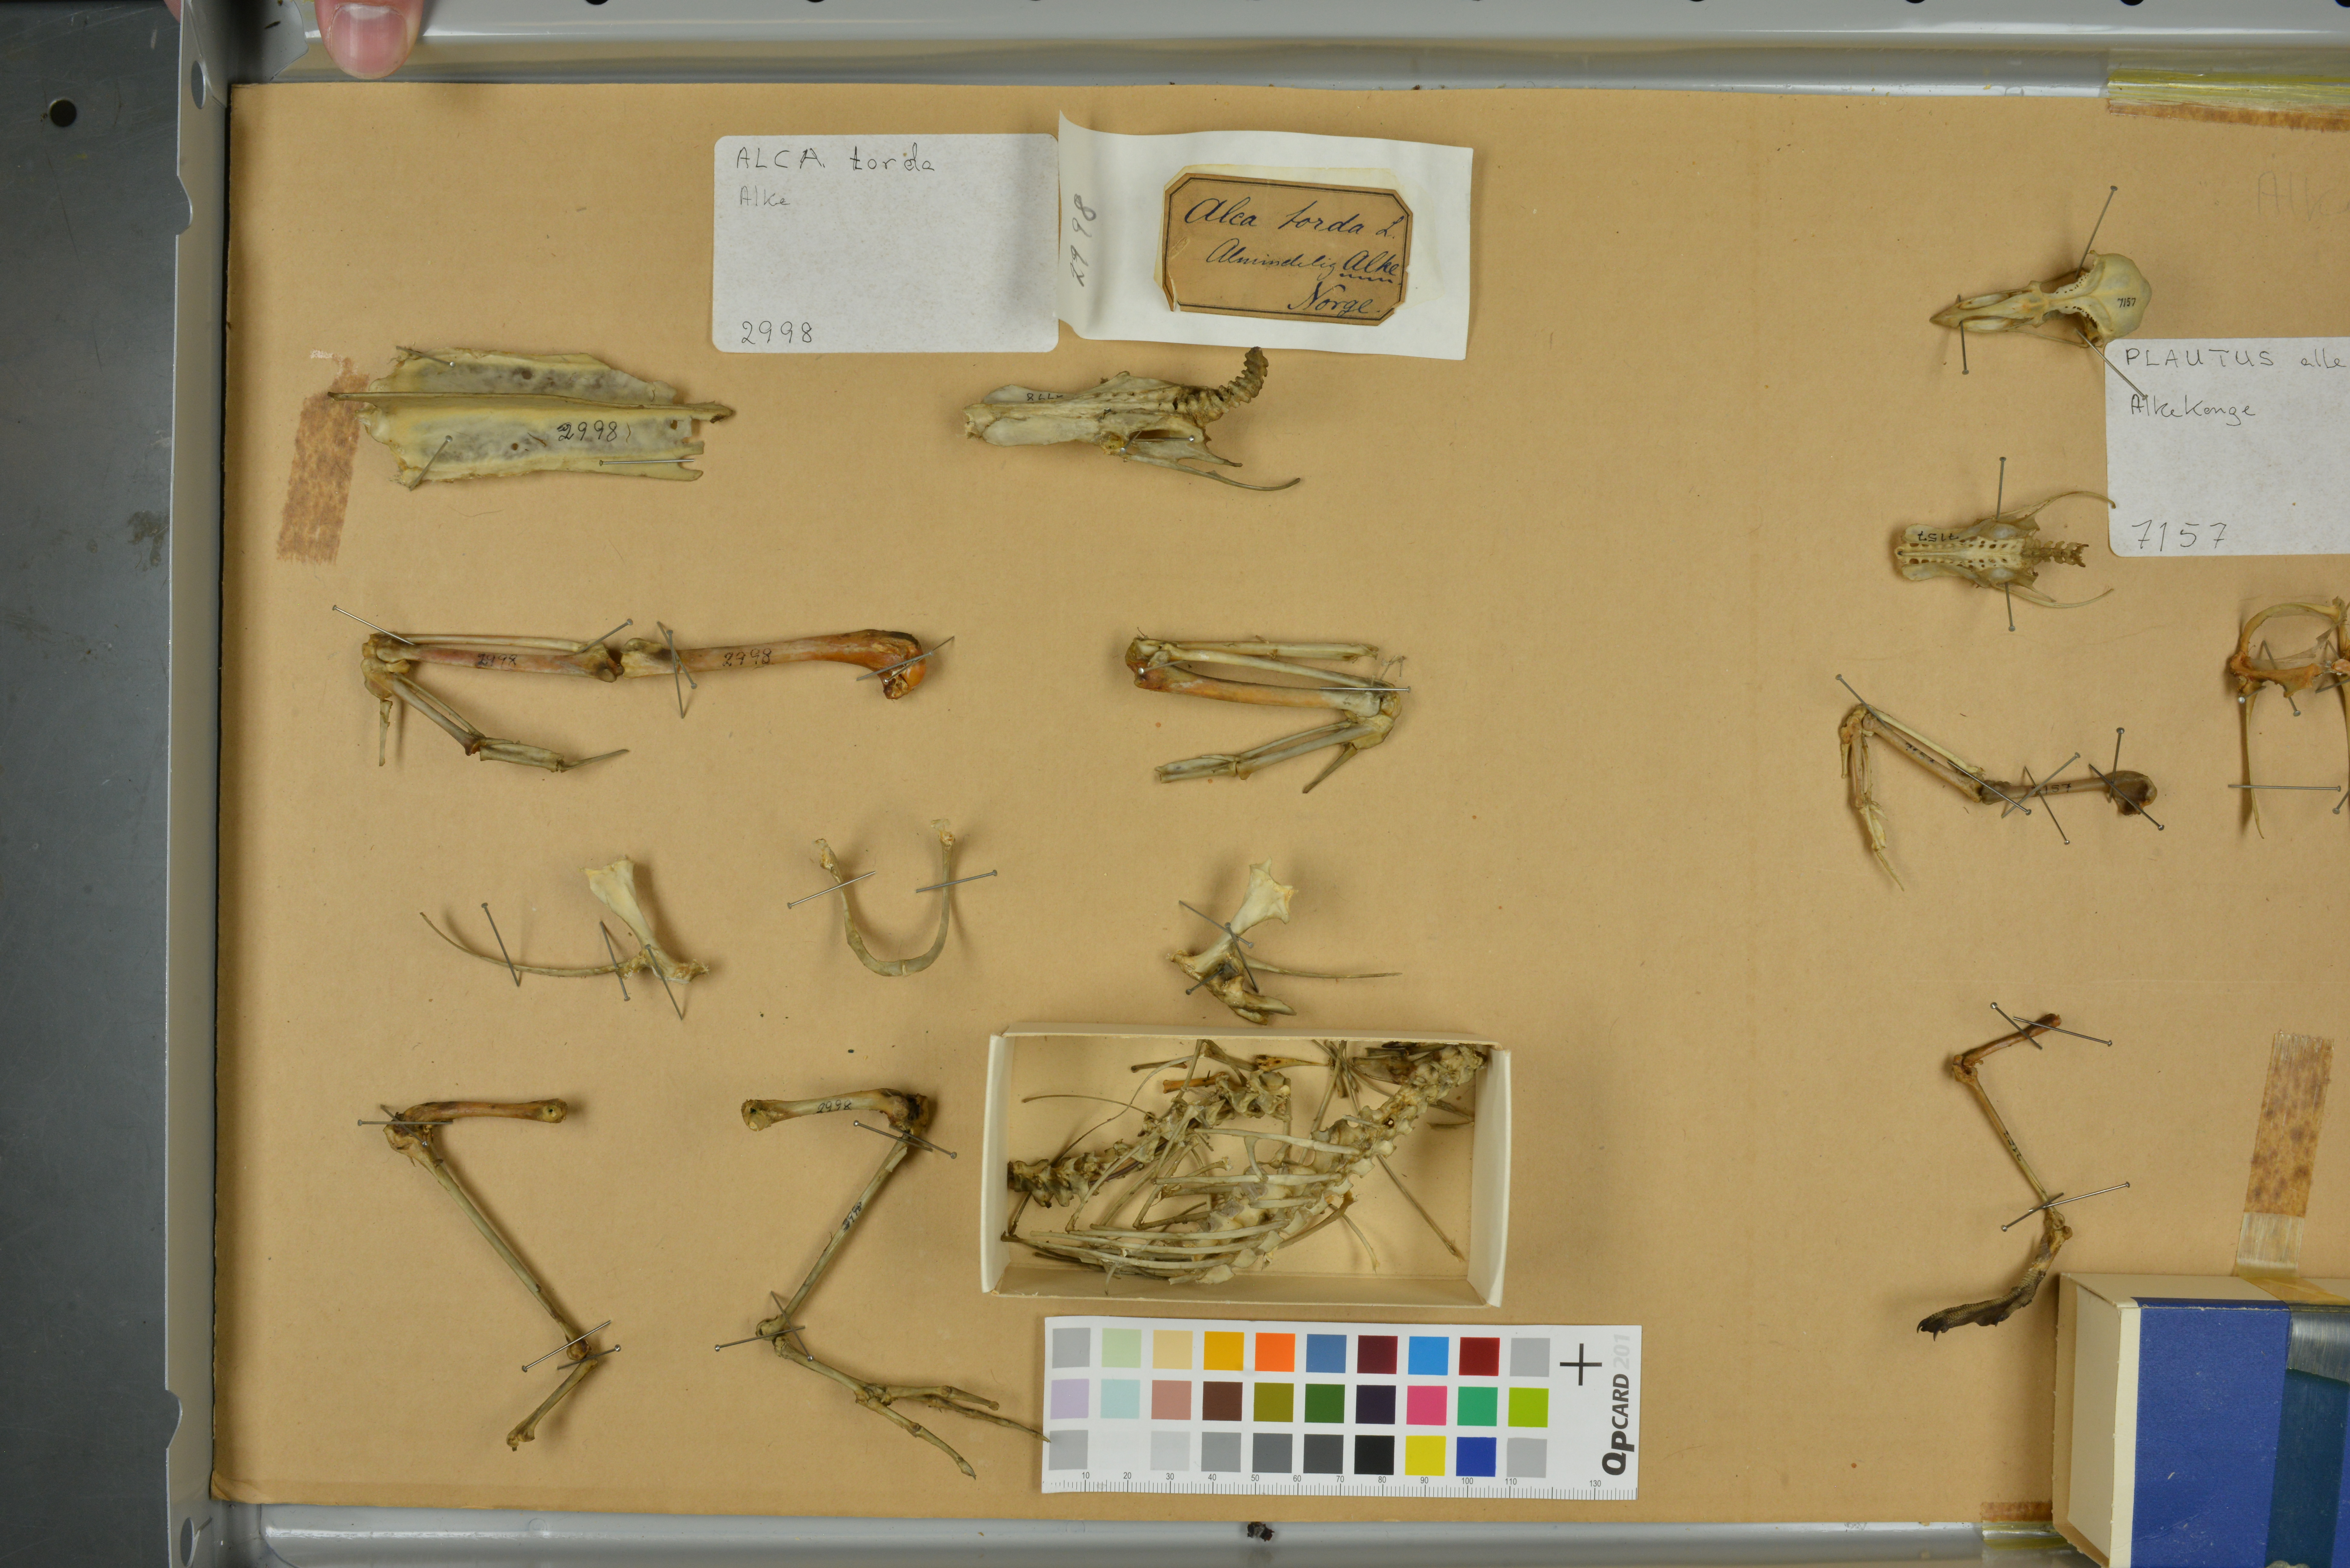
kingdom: Animalia
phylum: Chordata
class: Aves
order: Charadriiformes
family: Alcidae
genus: Alca
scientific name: Alca torda
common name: Razorbill
